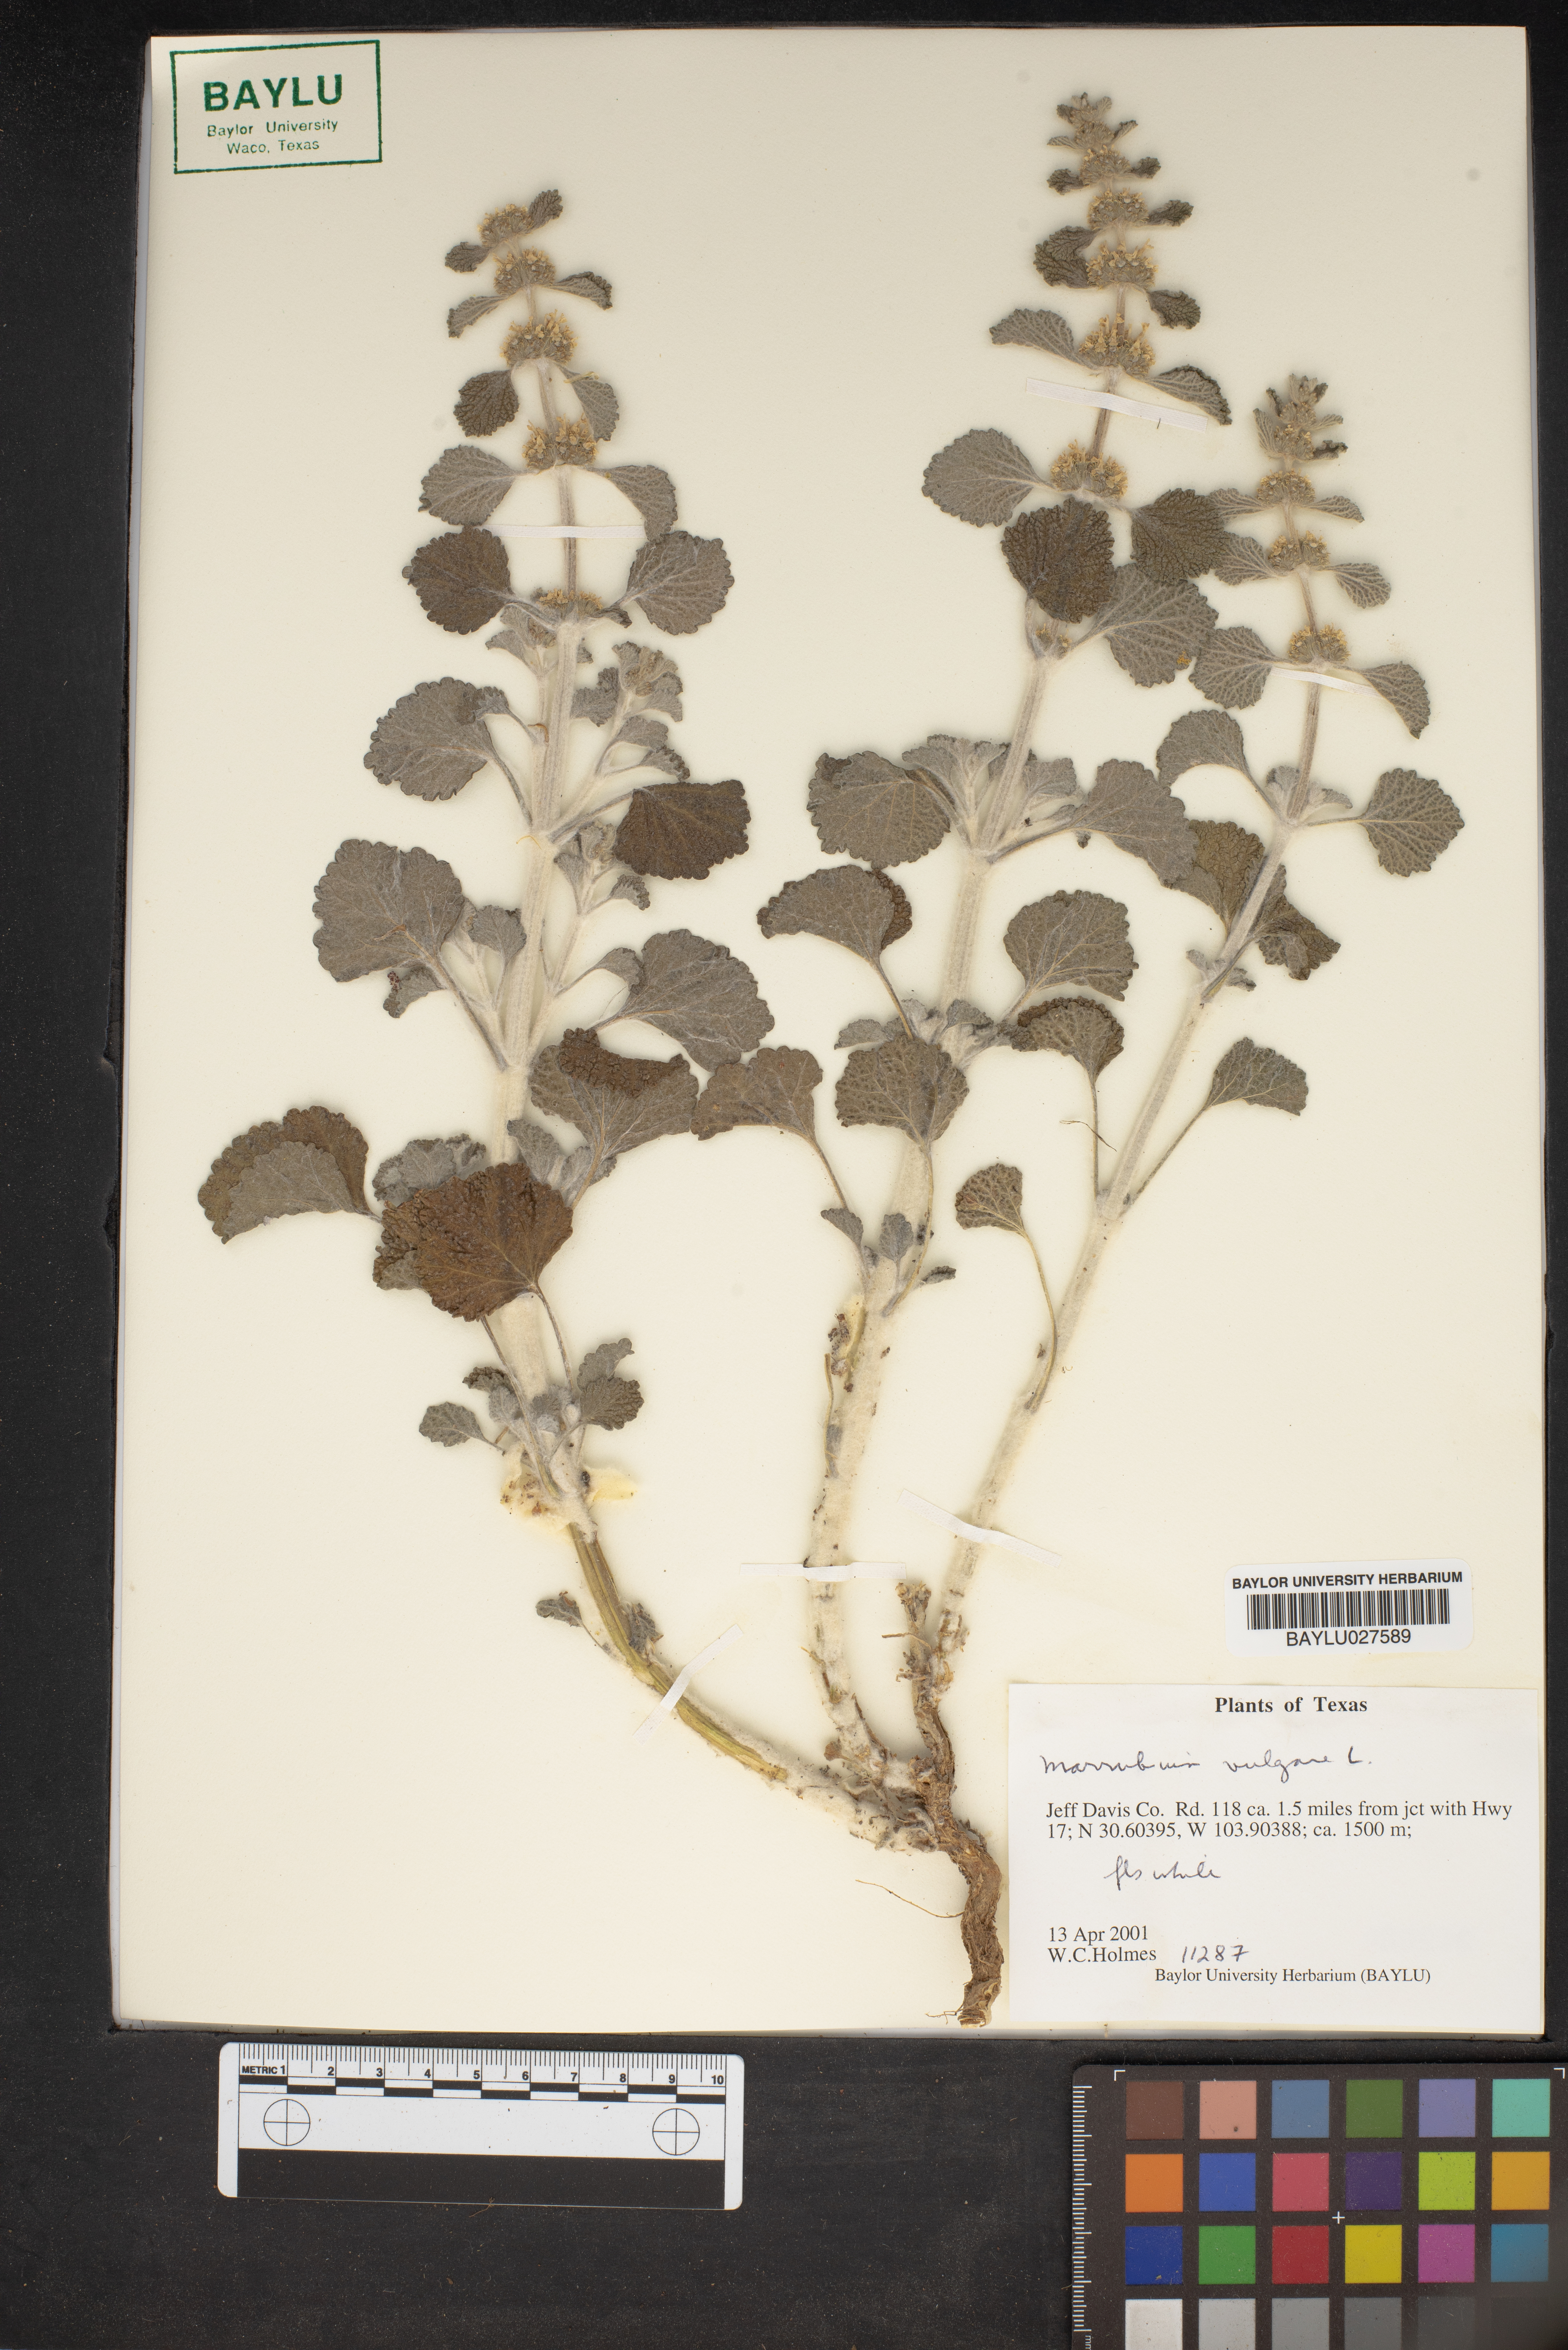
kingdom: Plantae
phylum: Tracheophyta
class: Magnoliopsida
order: Lamiales
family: Lamiaceae
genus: Marrubium
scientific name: Marrubium vulgare
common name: Horehound
